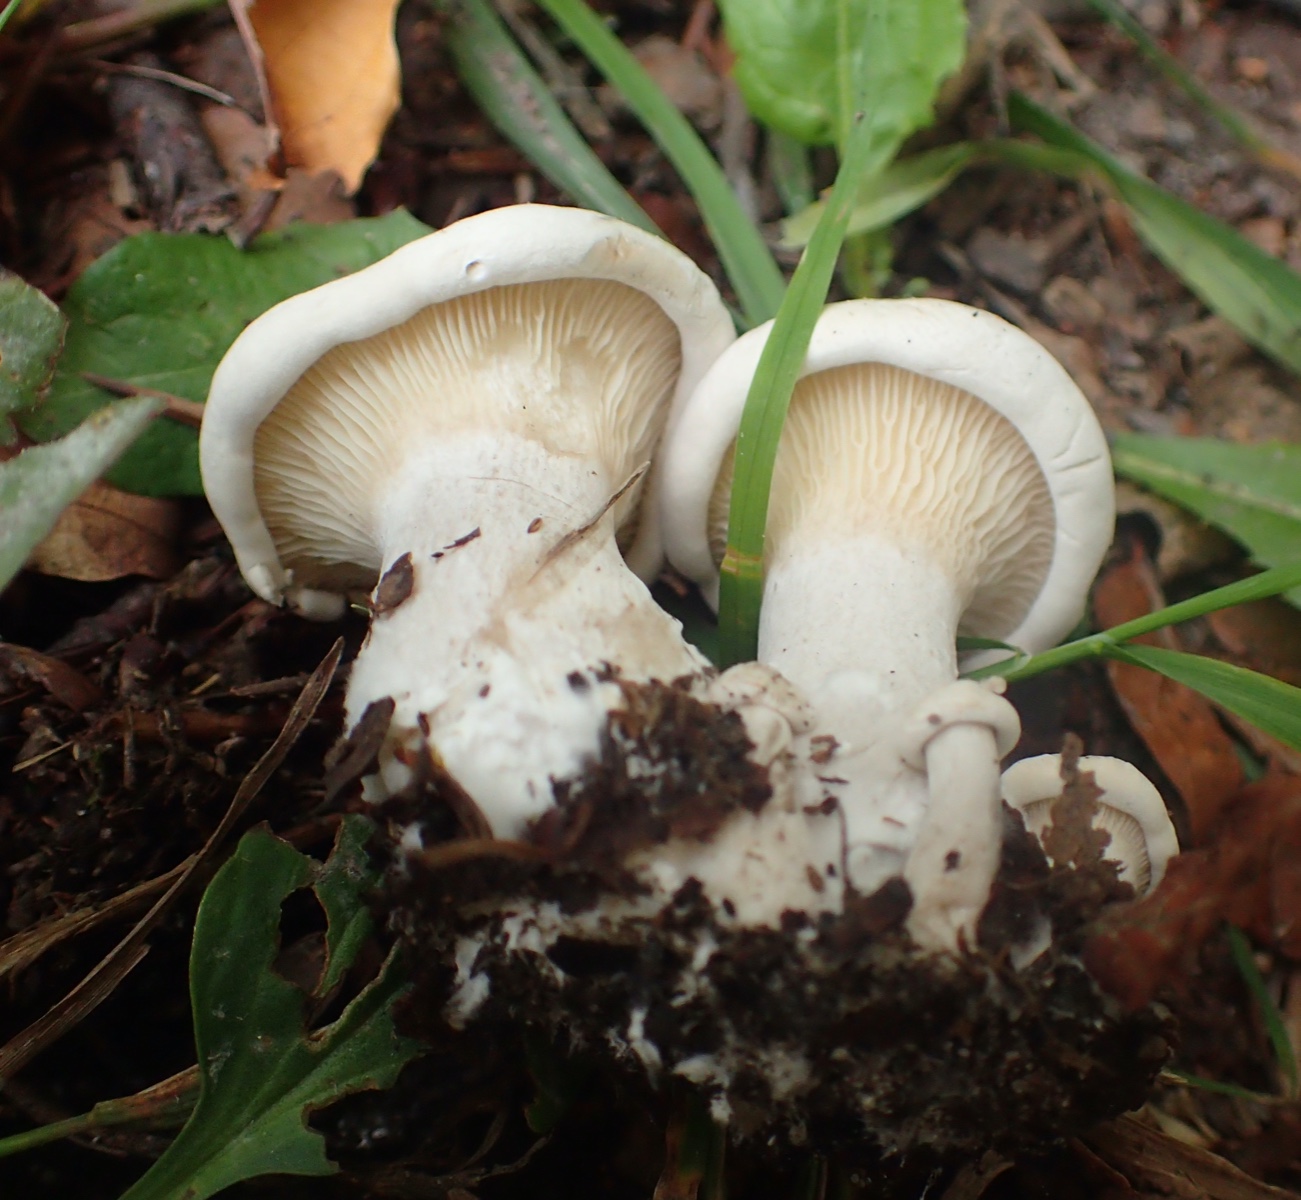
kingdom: Fungi
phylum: Basidiomycota
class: Agaricomycetes
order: Agaricales
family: Entolomataceae
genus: Clitopilus
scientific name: Clitopilus prunulus
